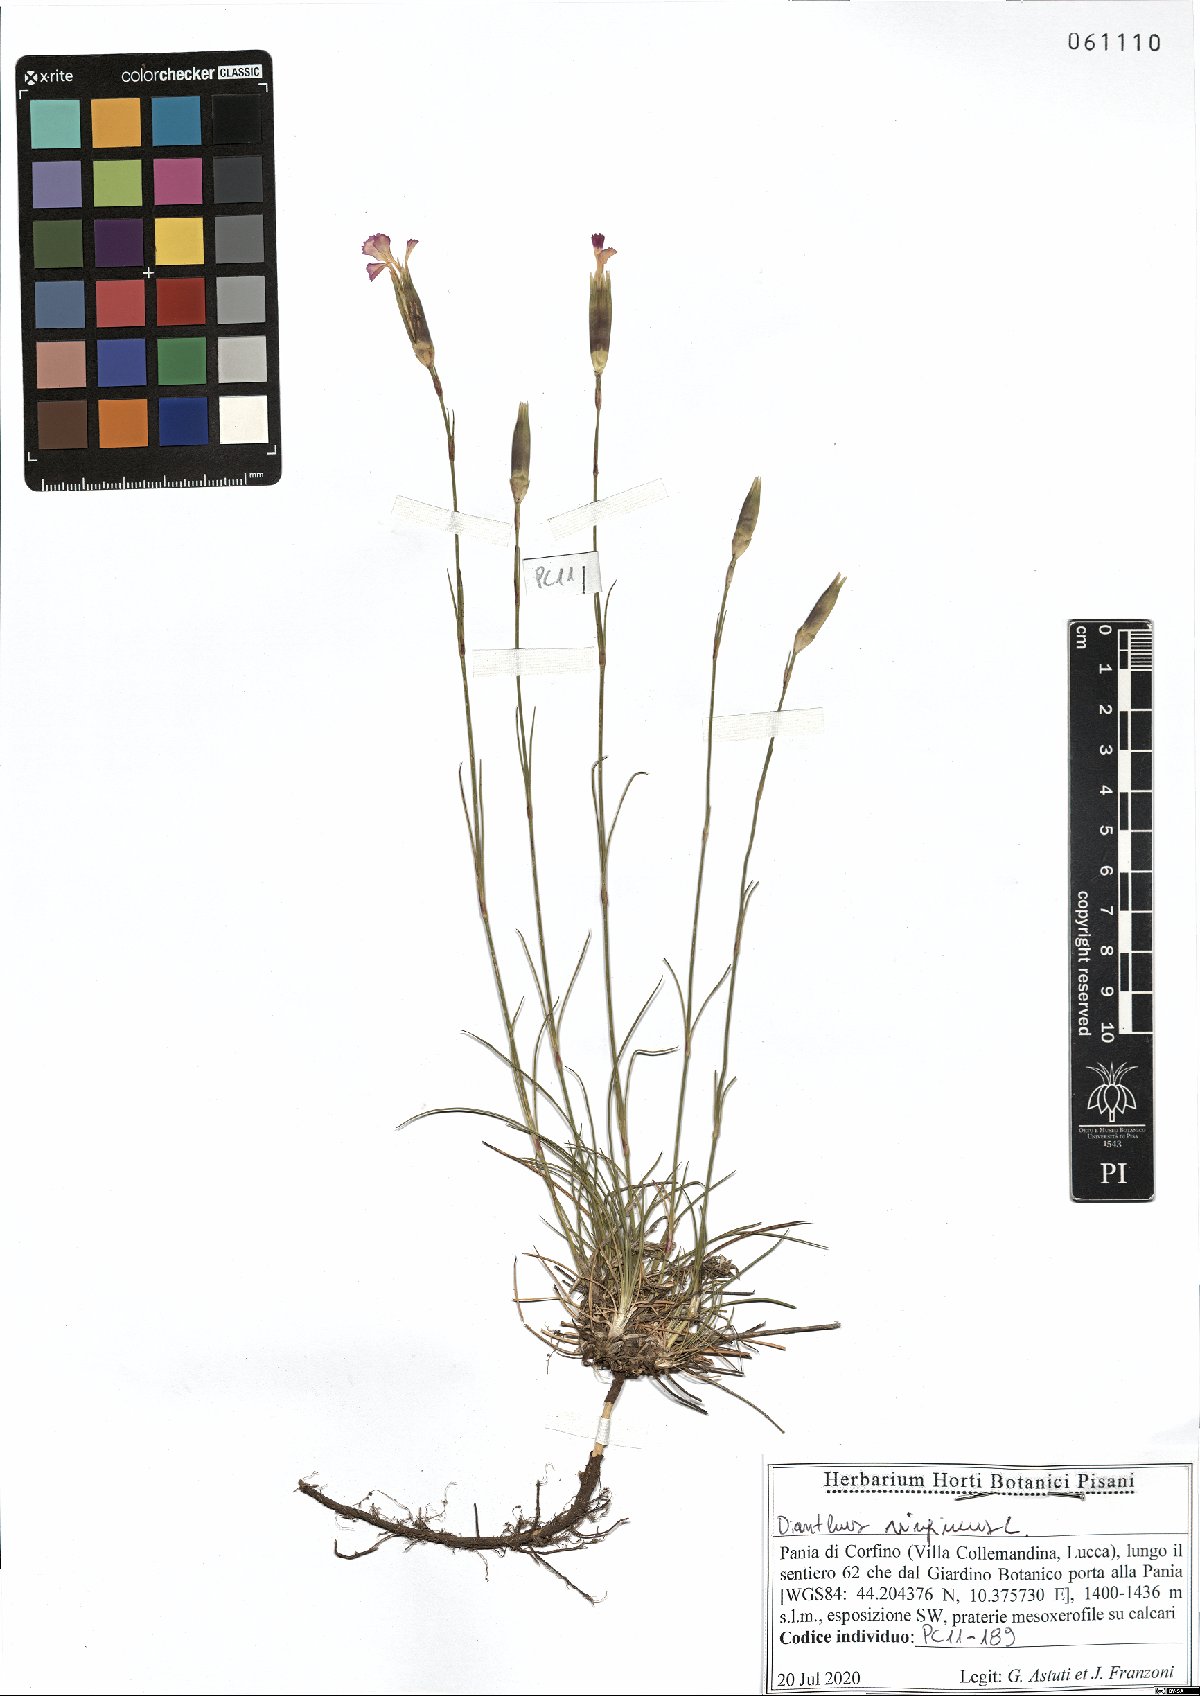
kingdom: Plantae
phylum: Tracheophyta
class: Magnoliopsida
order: Caryophyllales
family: Caryophyllaceae
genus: Dianthus
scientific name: Dianthus virgineus
